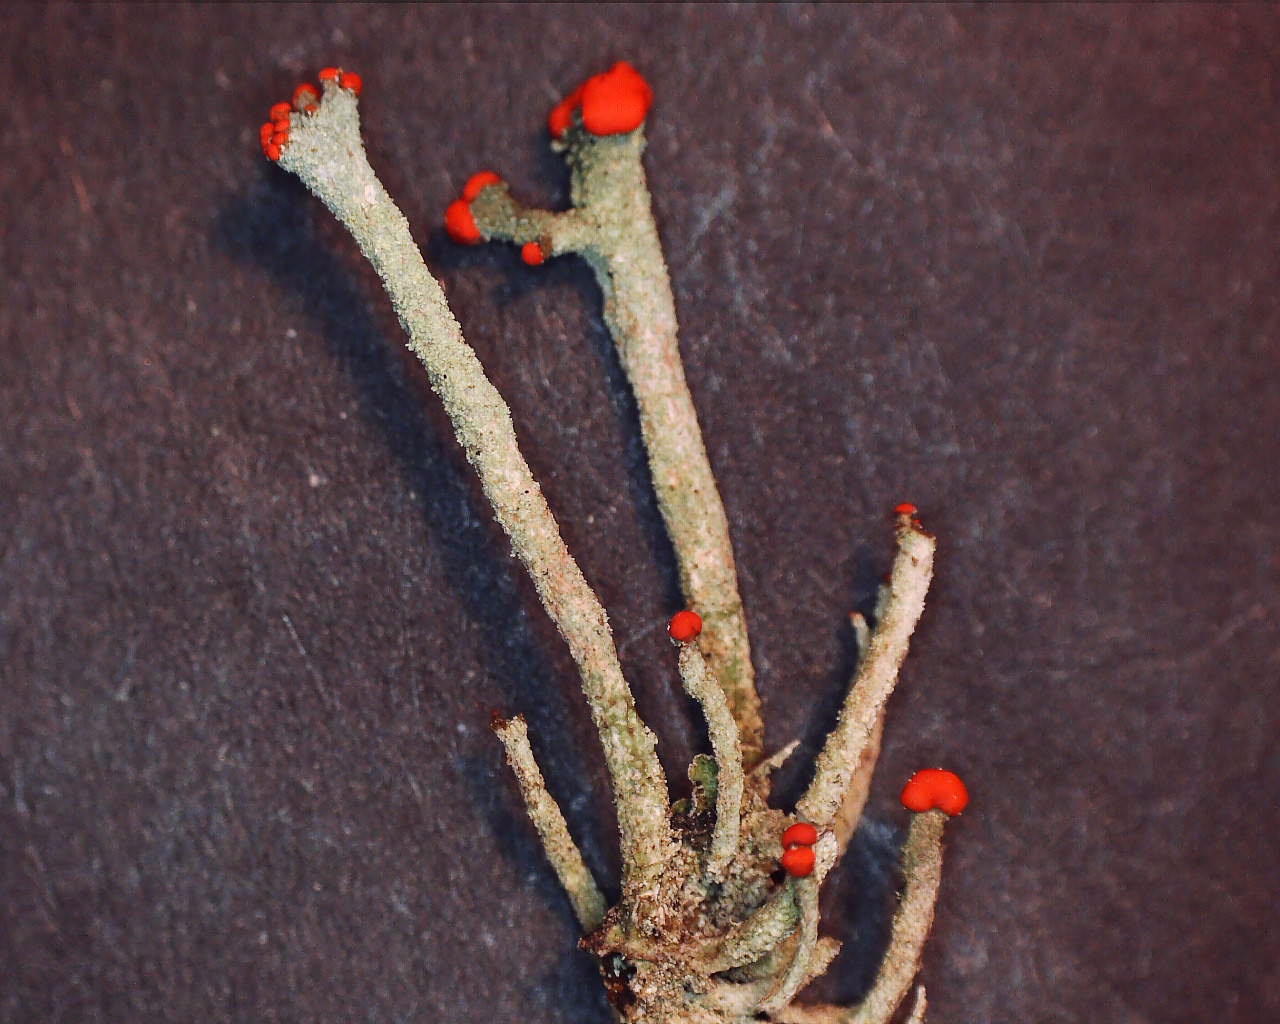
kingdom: Fungi
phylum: Ascomycota
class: Lecanoromycetes
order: Lecanorales
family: Cladoniaceae
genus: Cladonia
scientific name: Cladonia floerkeana
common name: lakrød bægerlav
